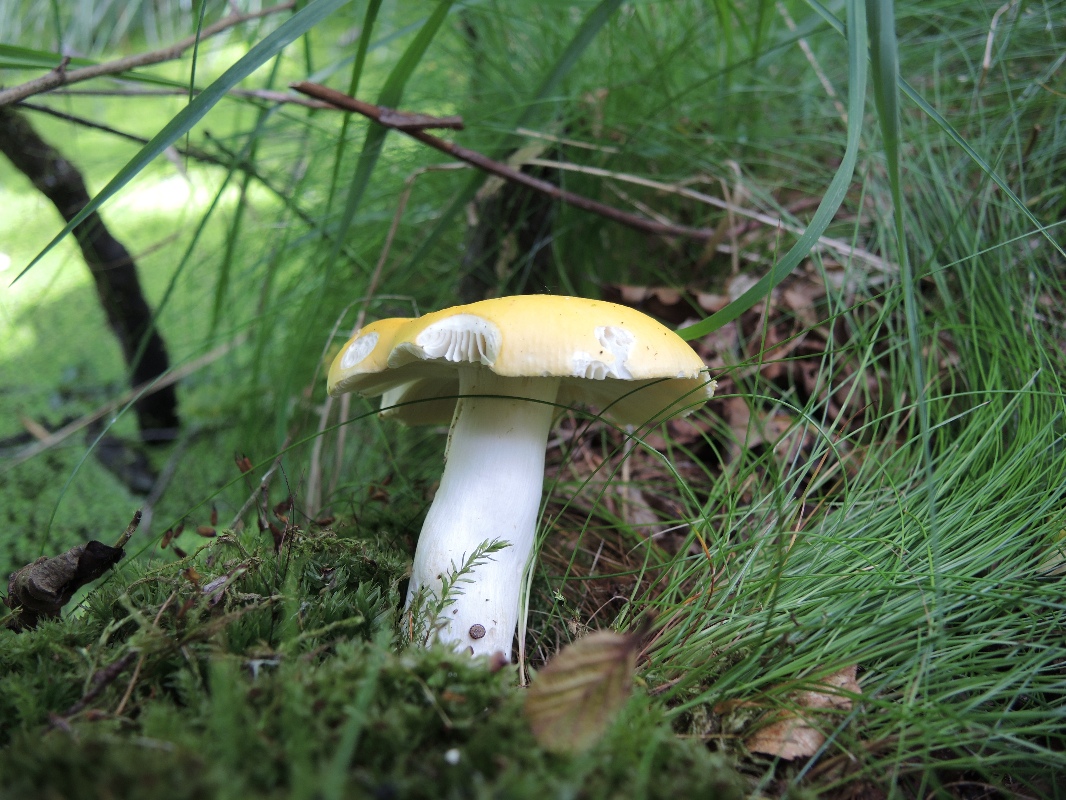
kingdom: Fungi
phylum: Basidiomycota
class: Agaricomycetes
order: Russulales
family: Russulaceae
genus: Russula
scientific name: Russula claroflava
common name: birke-skørhat
